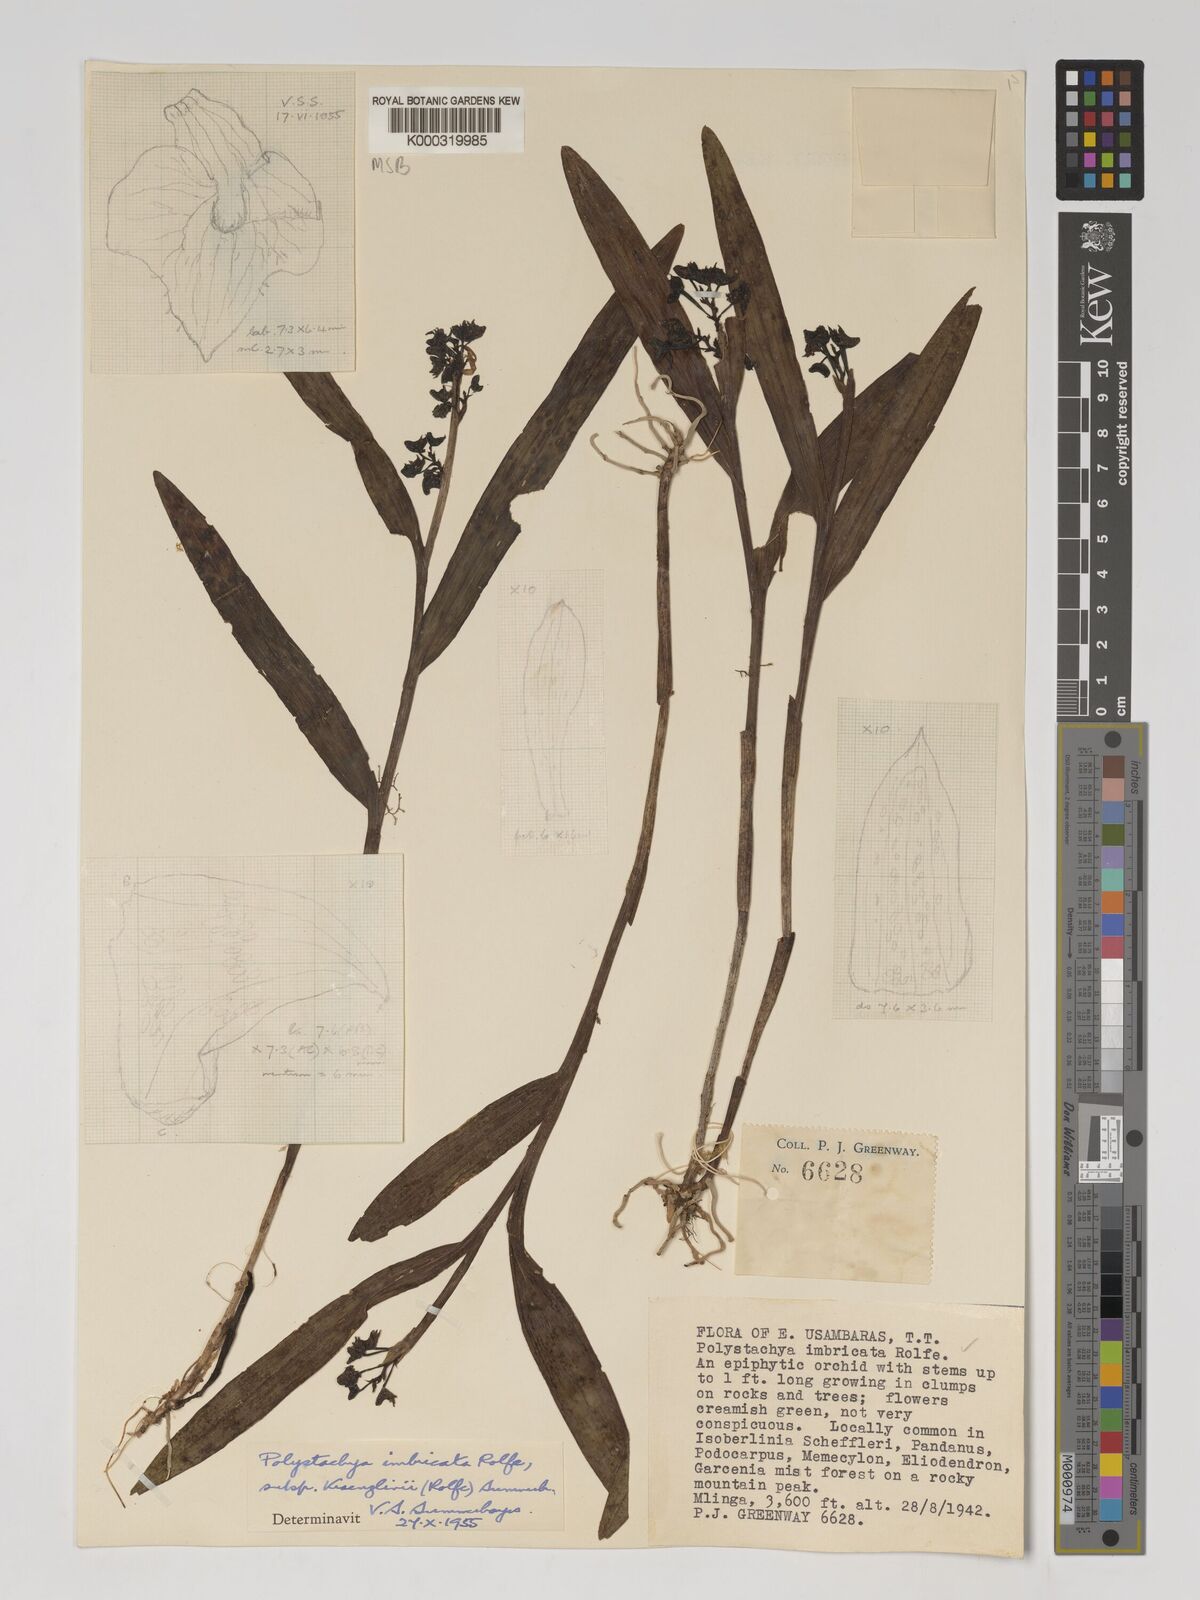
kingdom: Plantae
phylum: Tracheophyta
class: Liliopsida
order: Asparagales
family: Orchidaceae
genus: Polystachya
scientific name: Polystachya albescens
